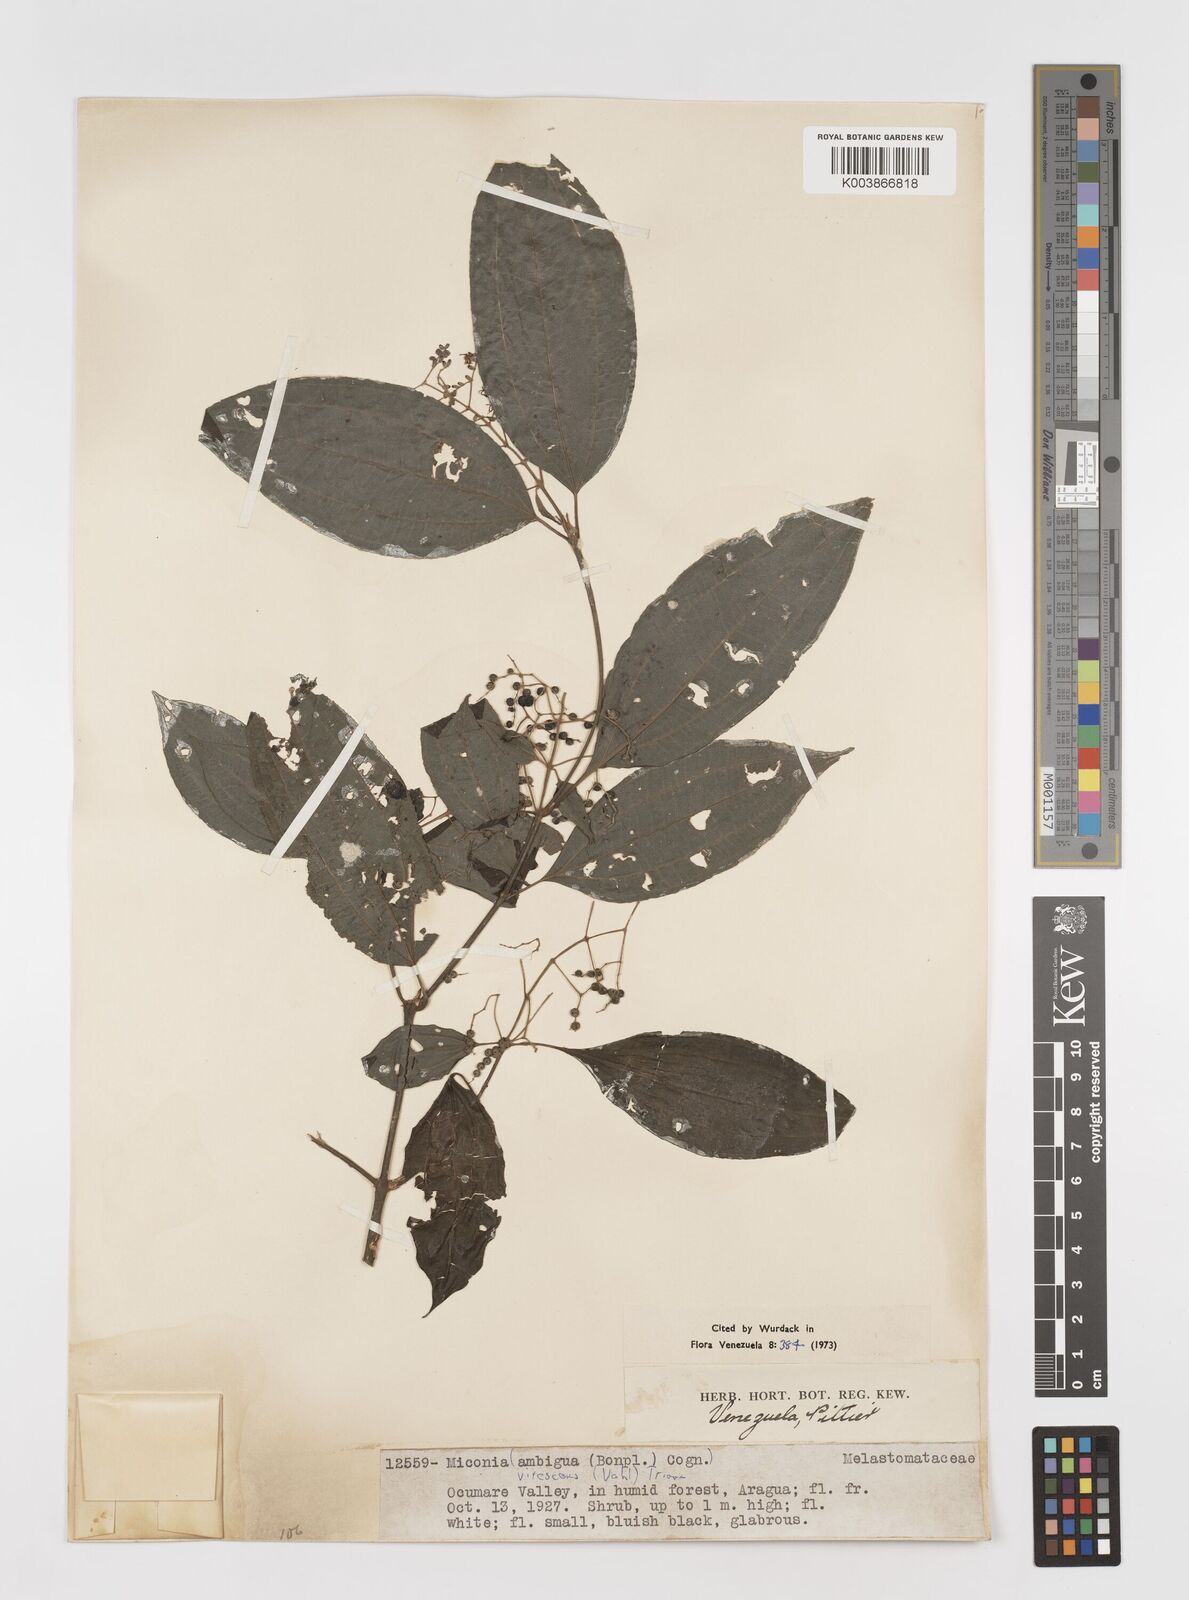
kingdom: Plantae
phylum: Tracheophyta
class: Magnoliopsida
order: Myrtales
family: Melastomataceae
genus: Miconia
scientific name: Miconia virescens
